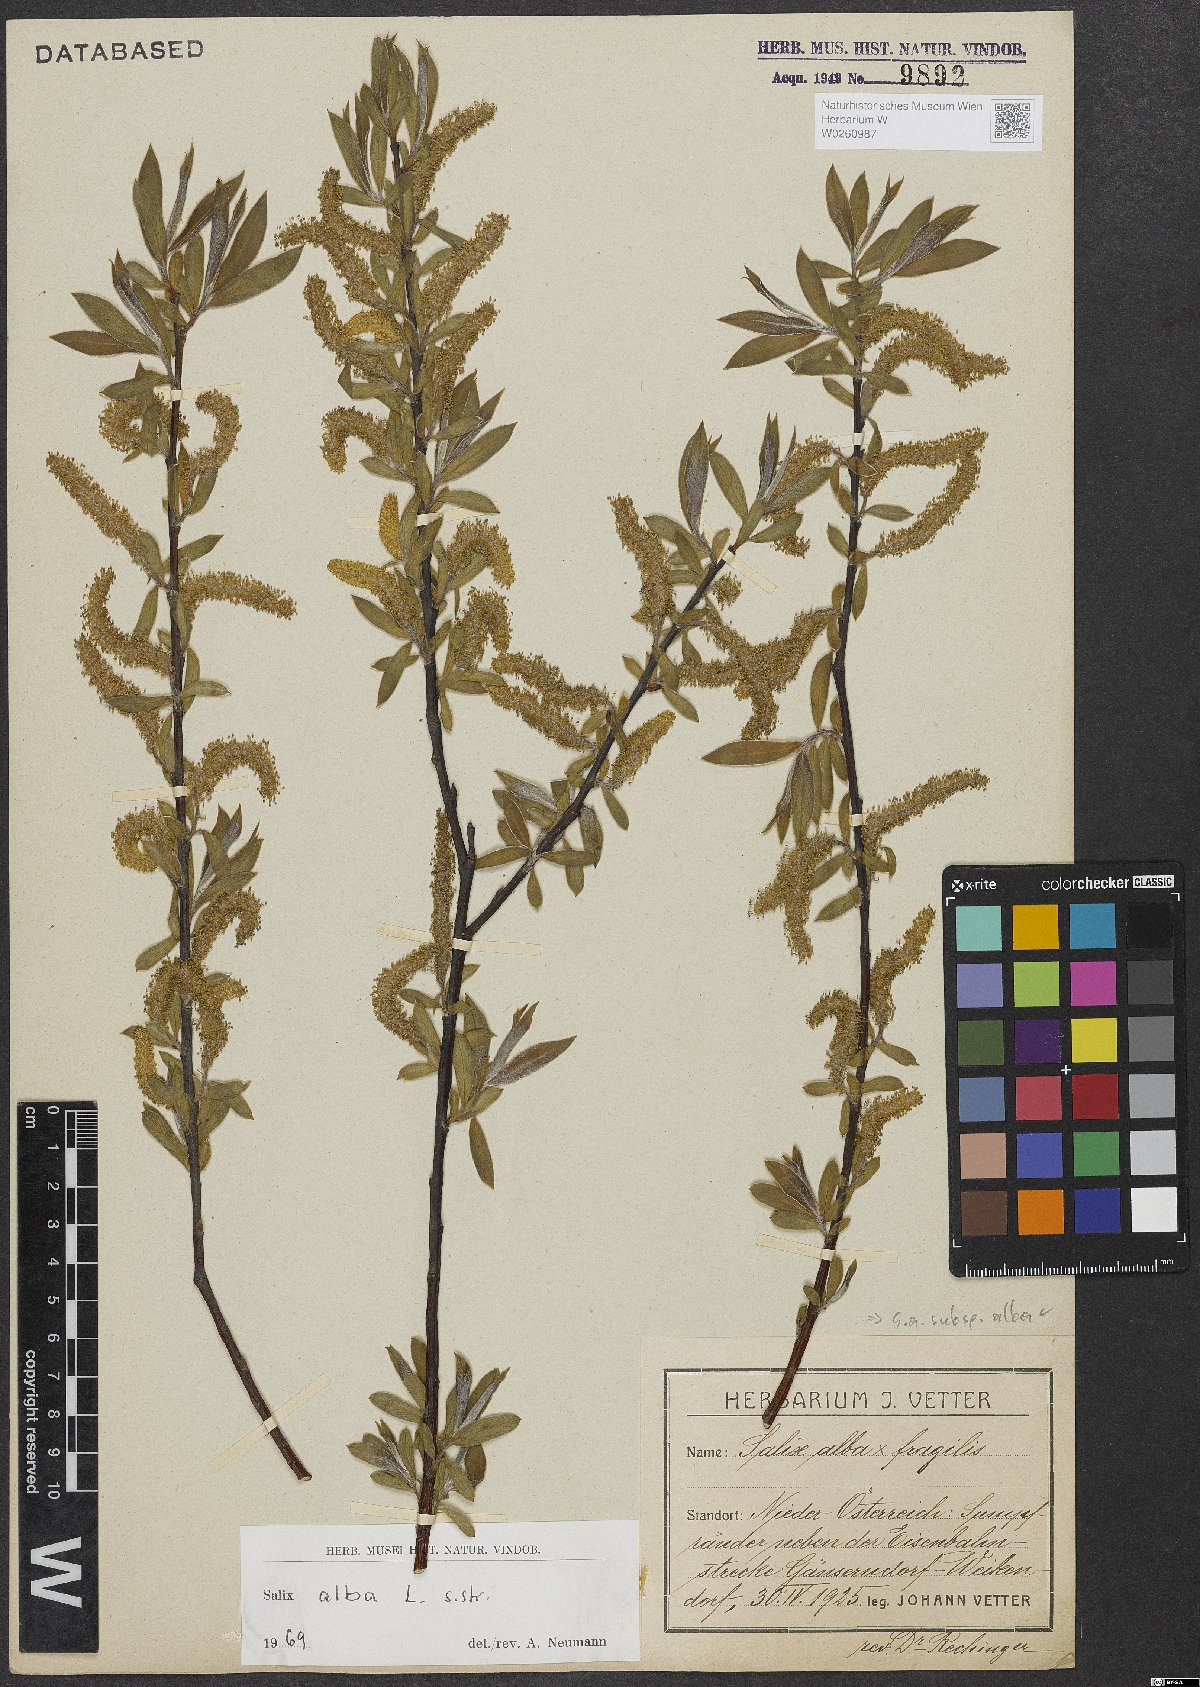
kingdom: Plantae
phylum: Tracheophyta
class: Magnoliopsida
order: Malpighiales
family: Salicaceae
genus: Salix
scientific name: Salix alba
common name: White willow
